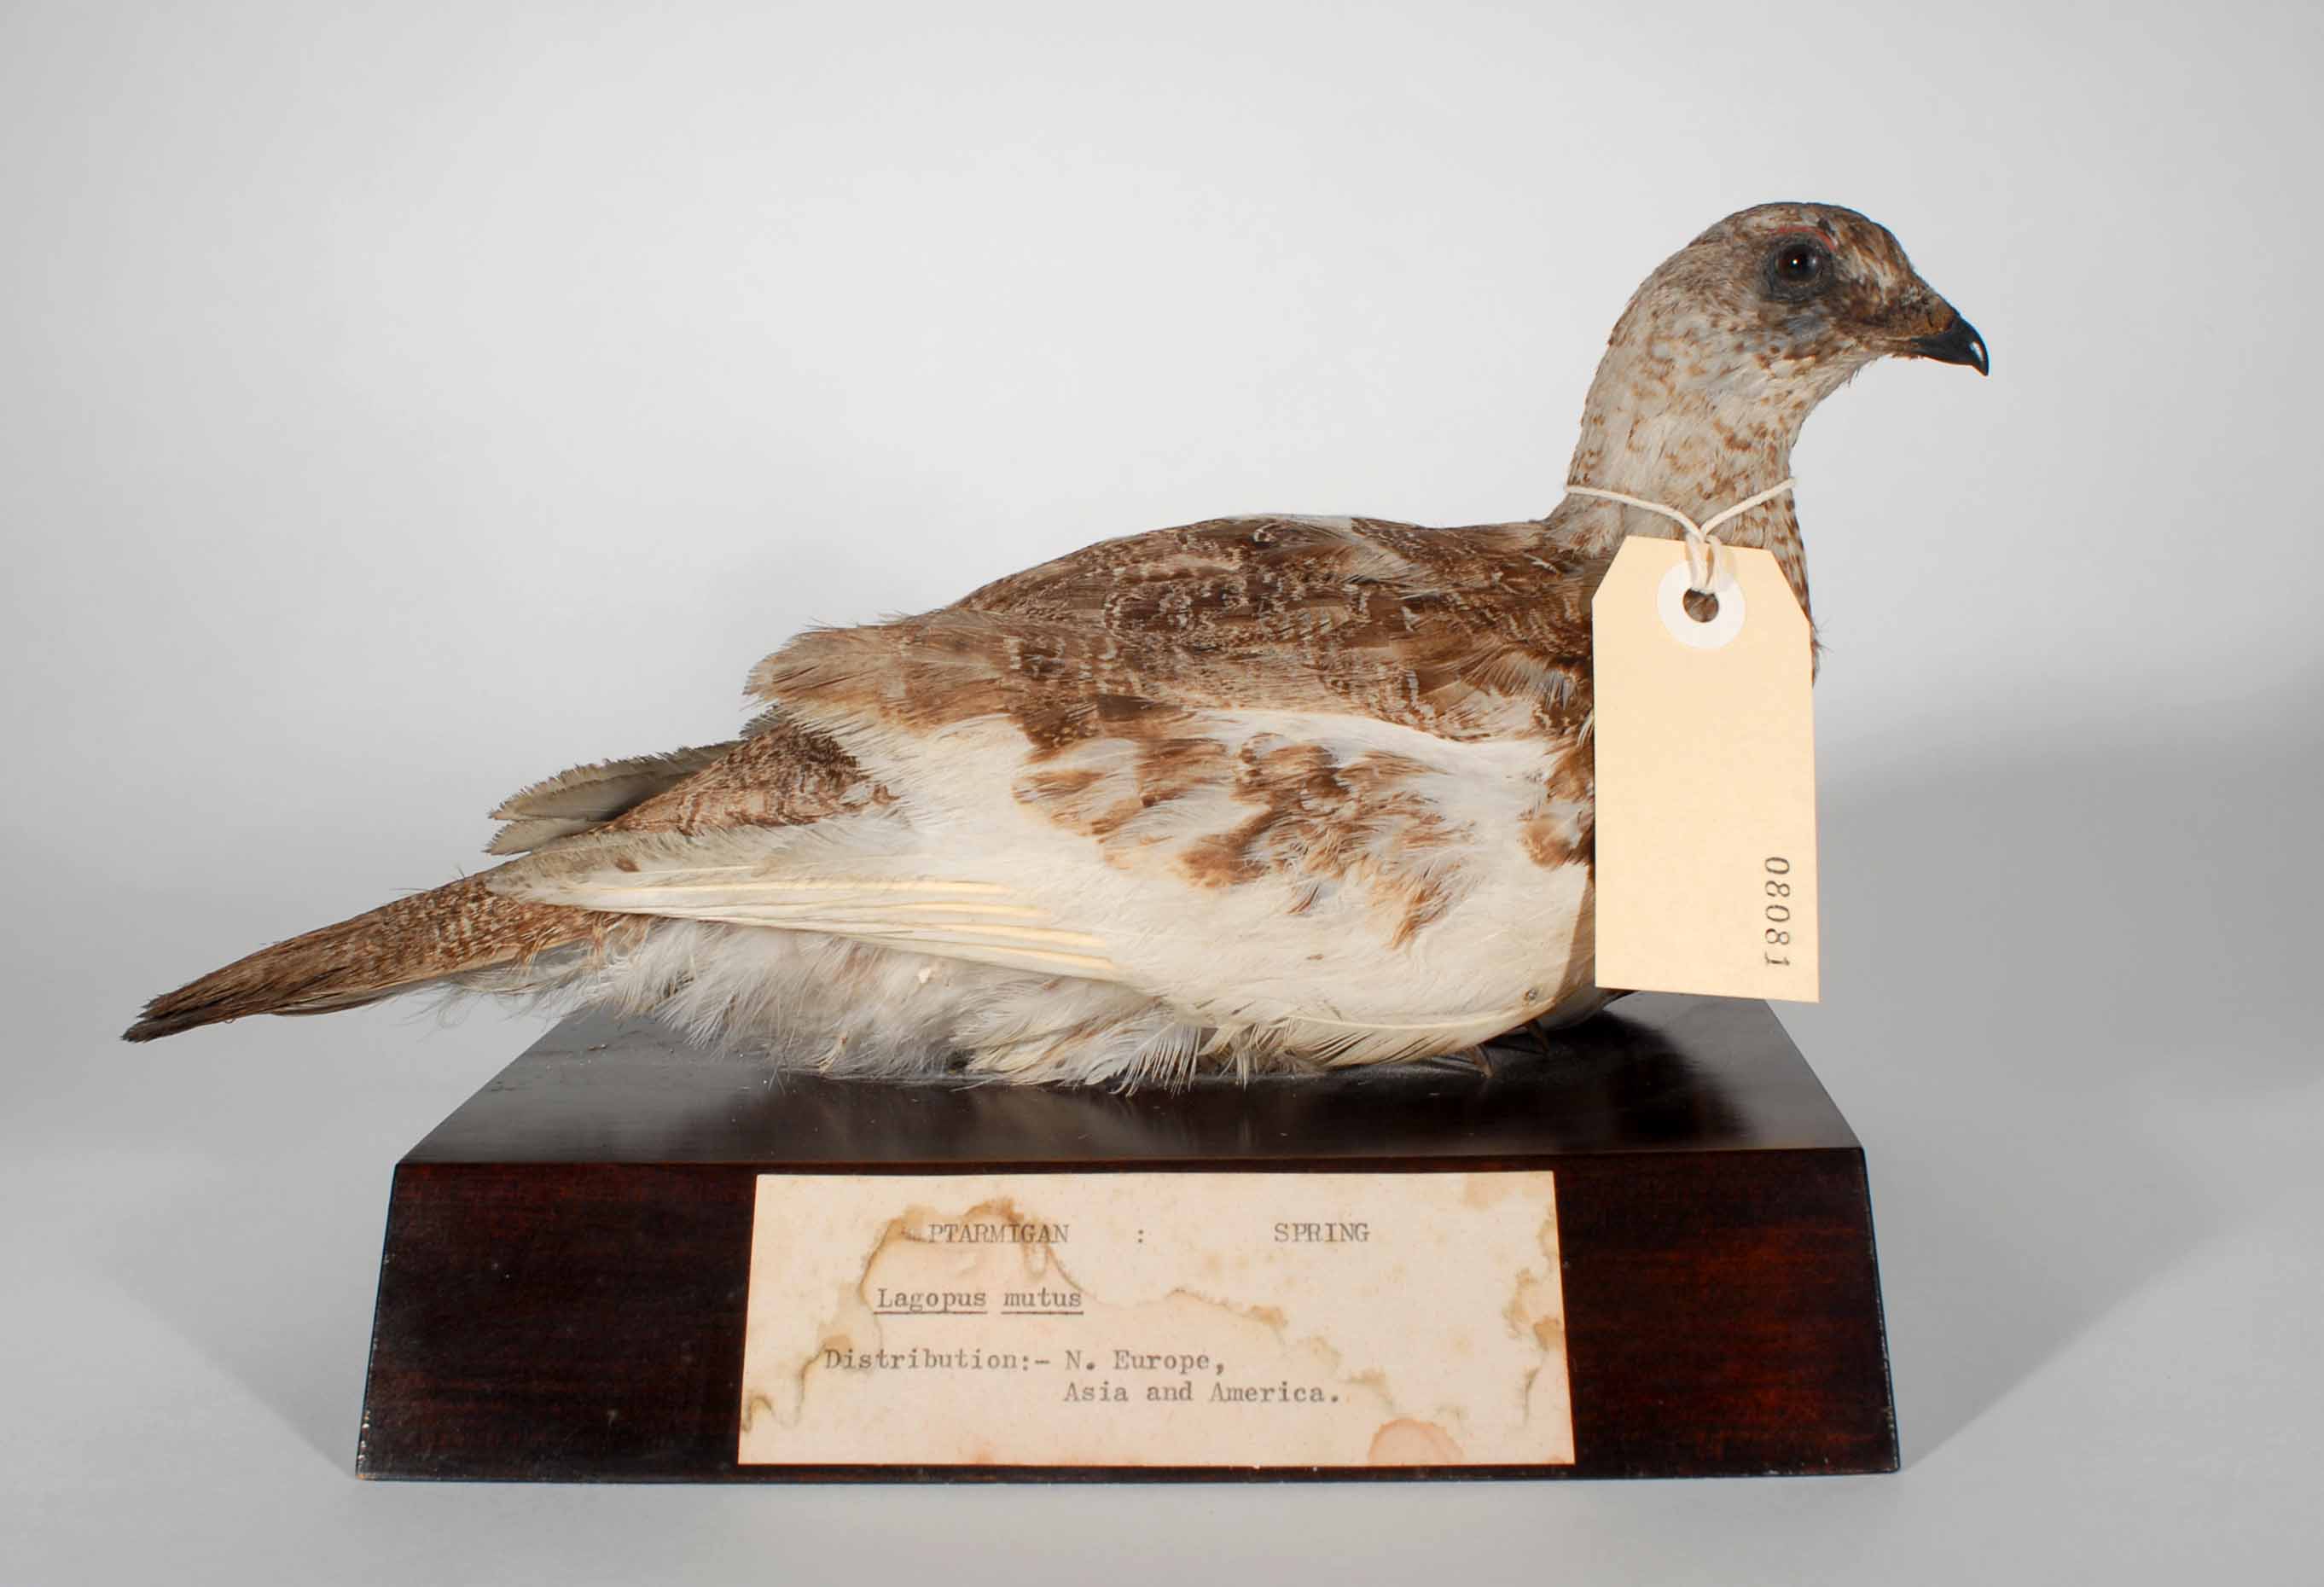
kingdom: Animalia
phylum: Chordata
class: Aves
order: Galliformes
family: Phasianidae
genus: Lagopus
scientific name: Lagopus muta
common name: Rock ptarmigan
